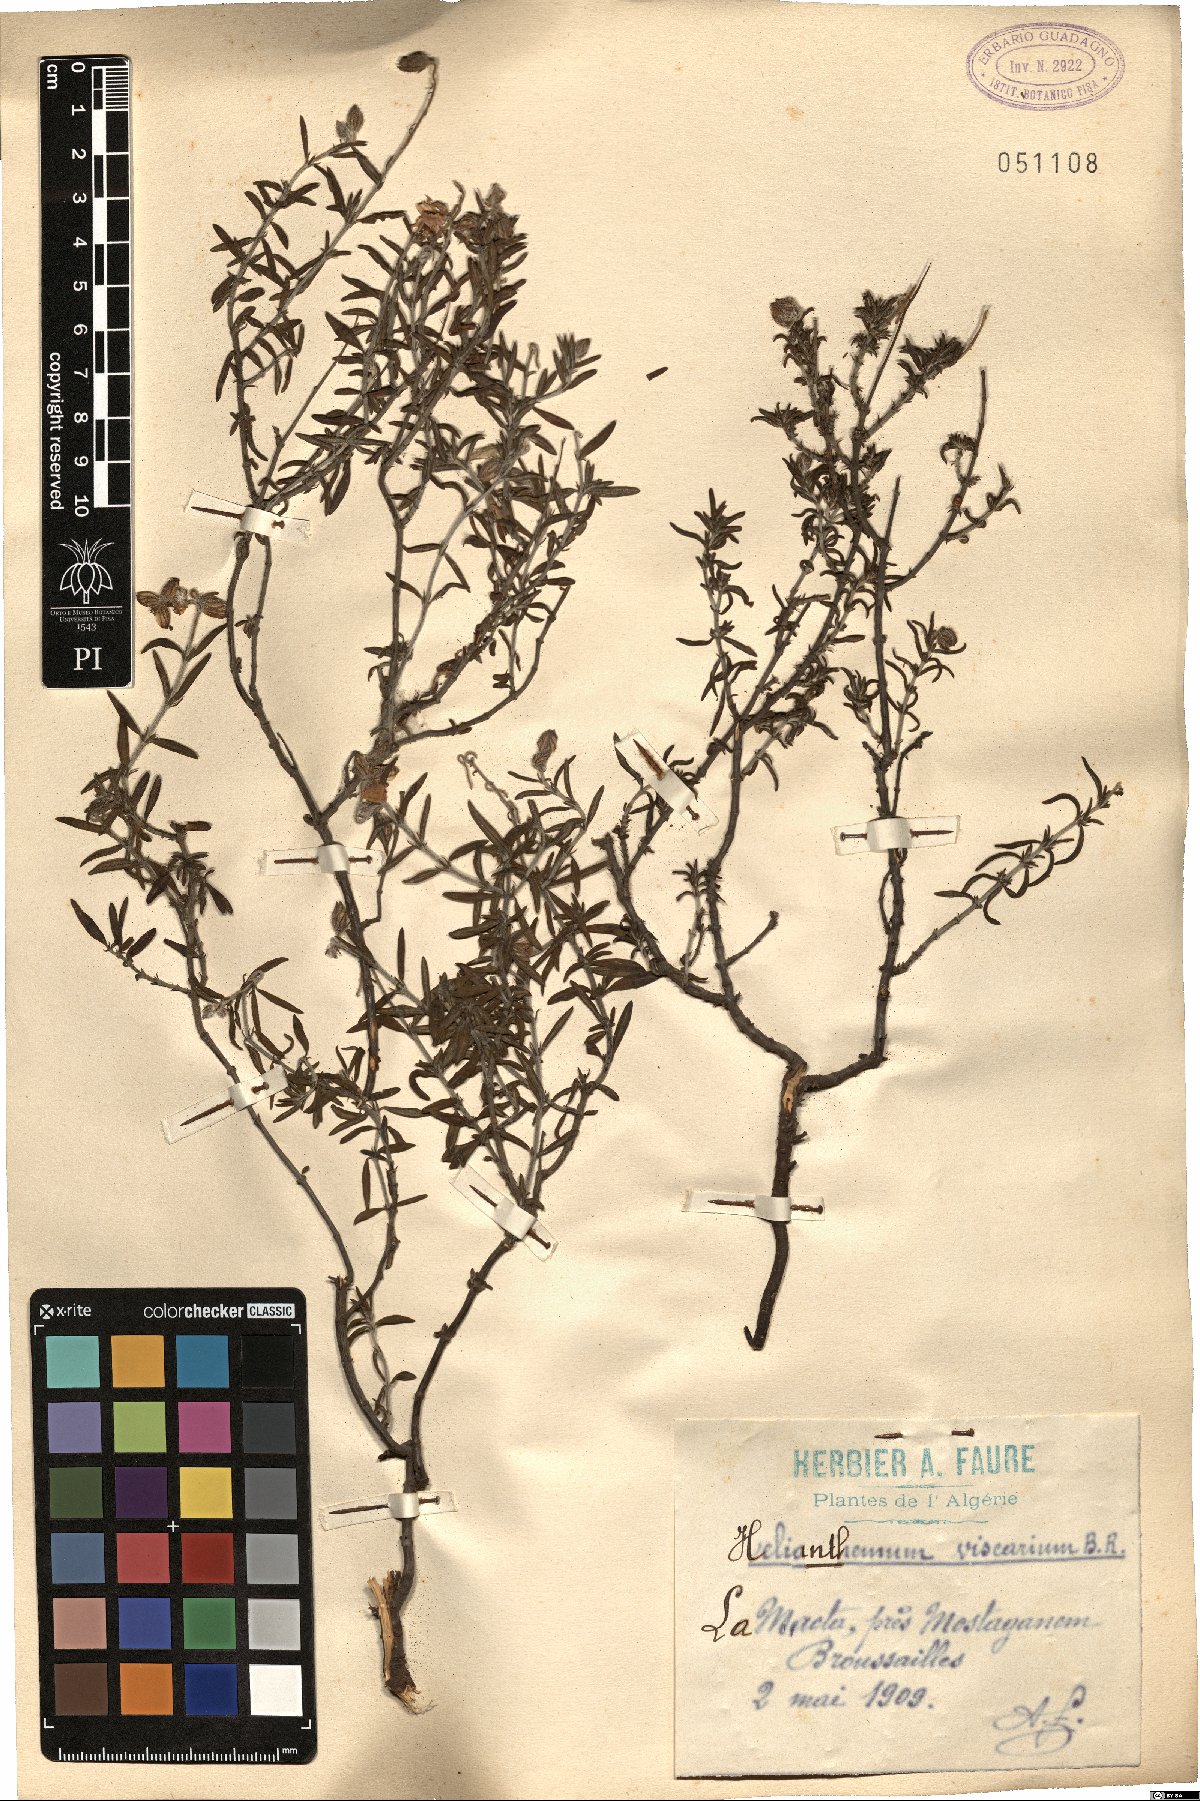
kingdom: Plantae
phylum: Tracheophyta
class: Magnoliopsida
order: Malvales
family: Cistaceae
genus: Helianthemum
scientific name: Helianthemum viscarium
